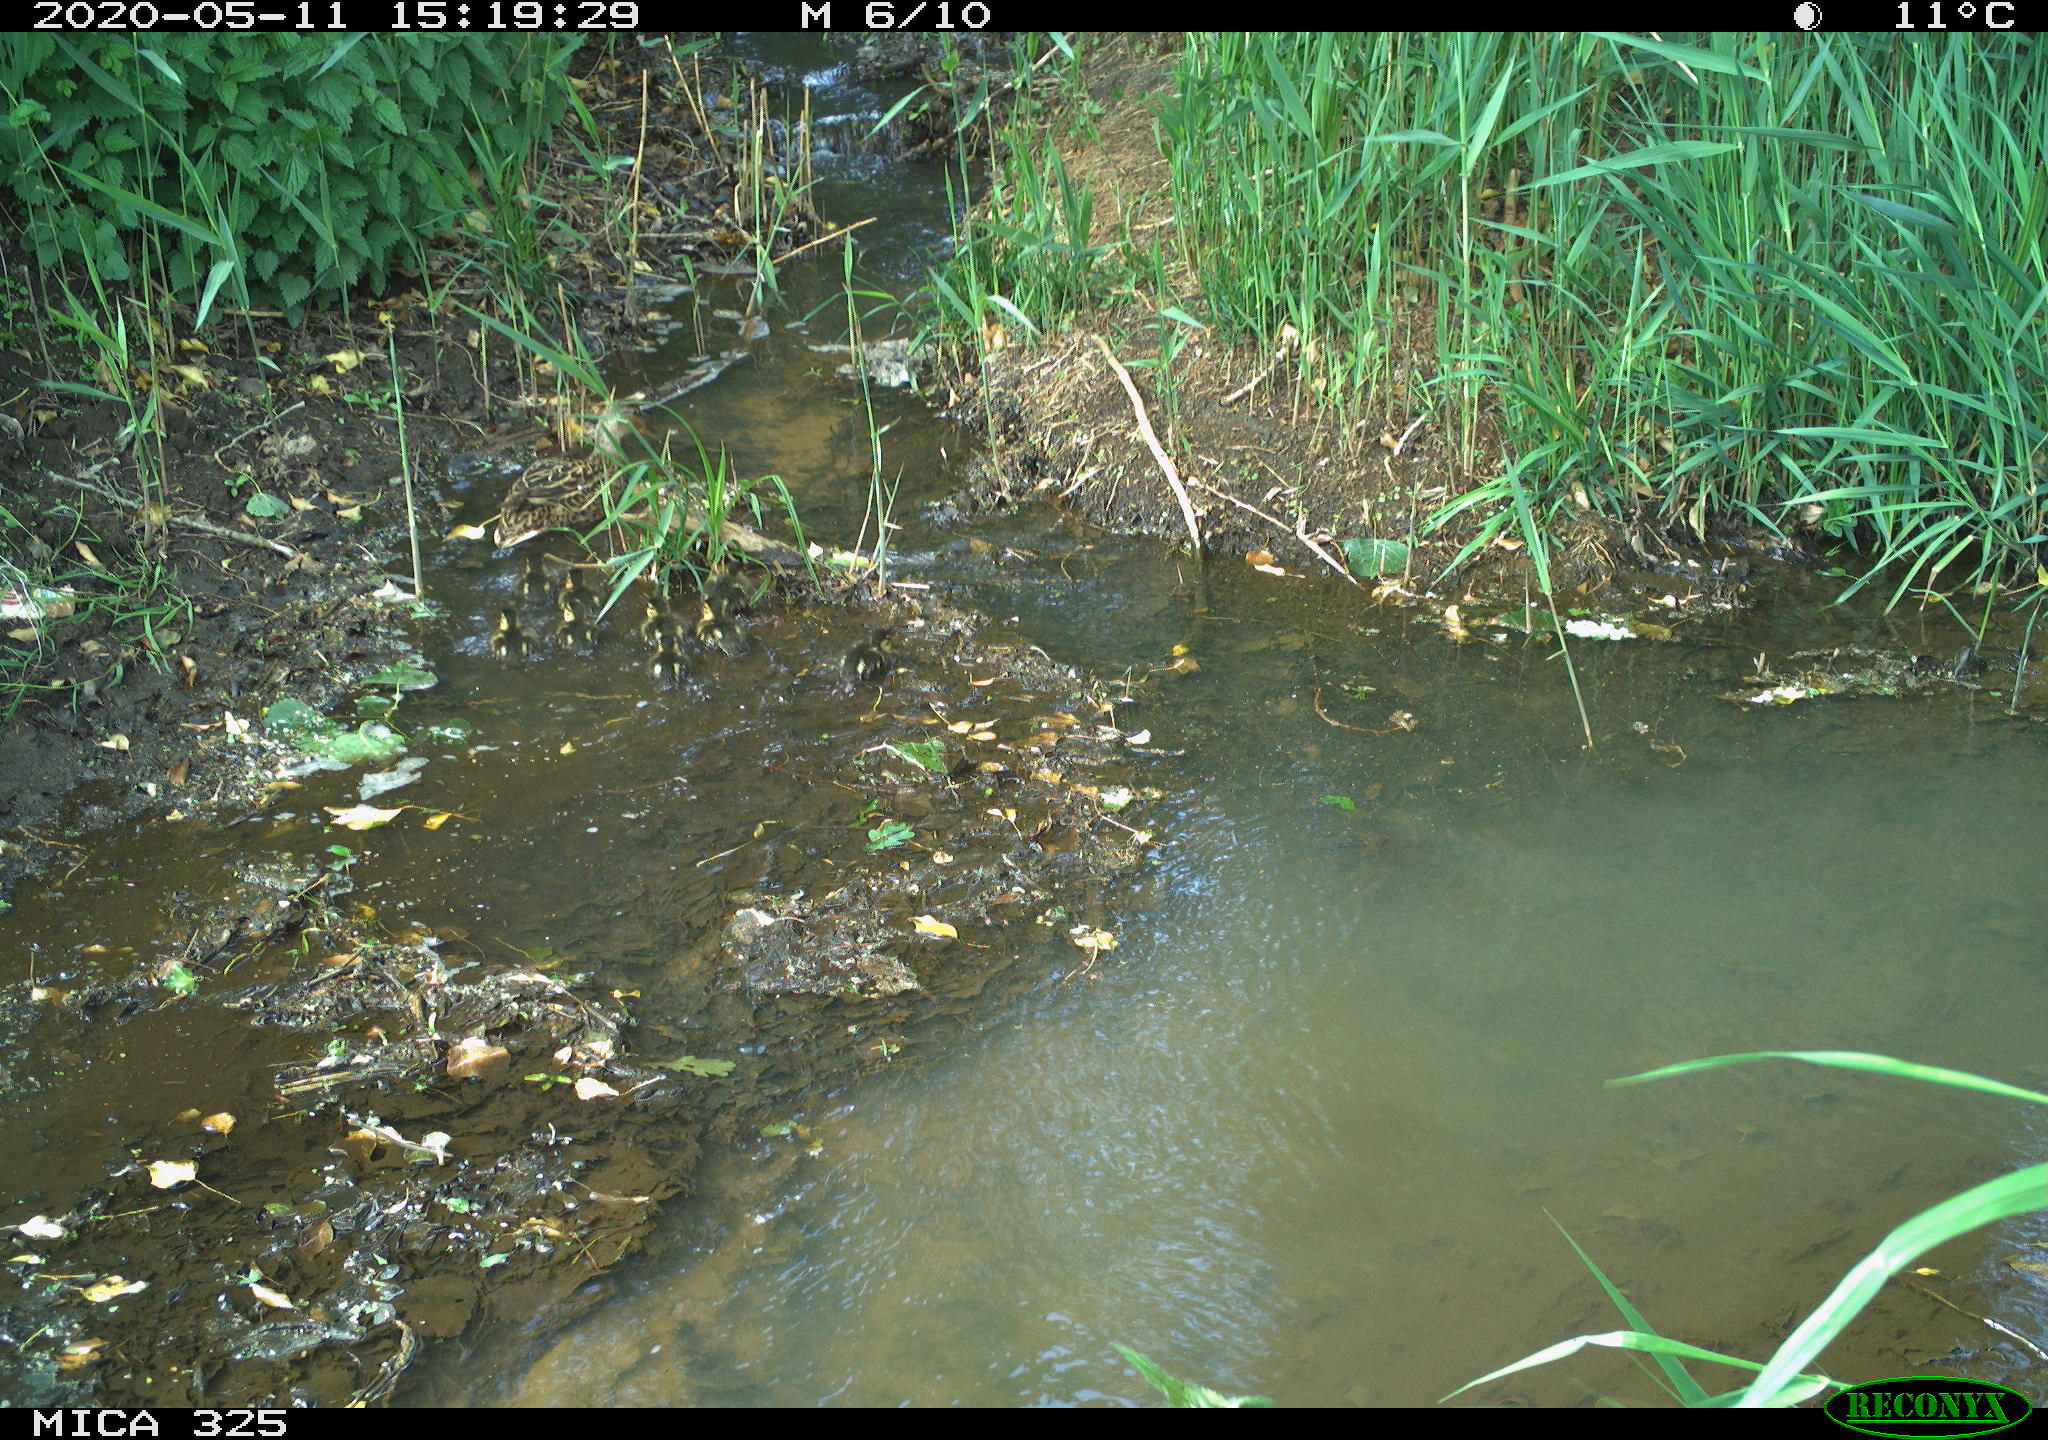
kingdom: Animalia
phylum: Chordata
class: Aves
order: Anseriformes
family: Anatidae
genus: Anas
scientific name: Anas platyrhynchos
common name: Mallard
